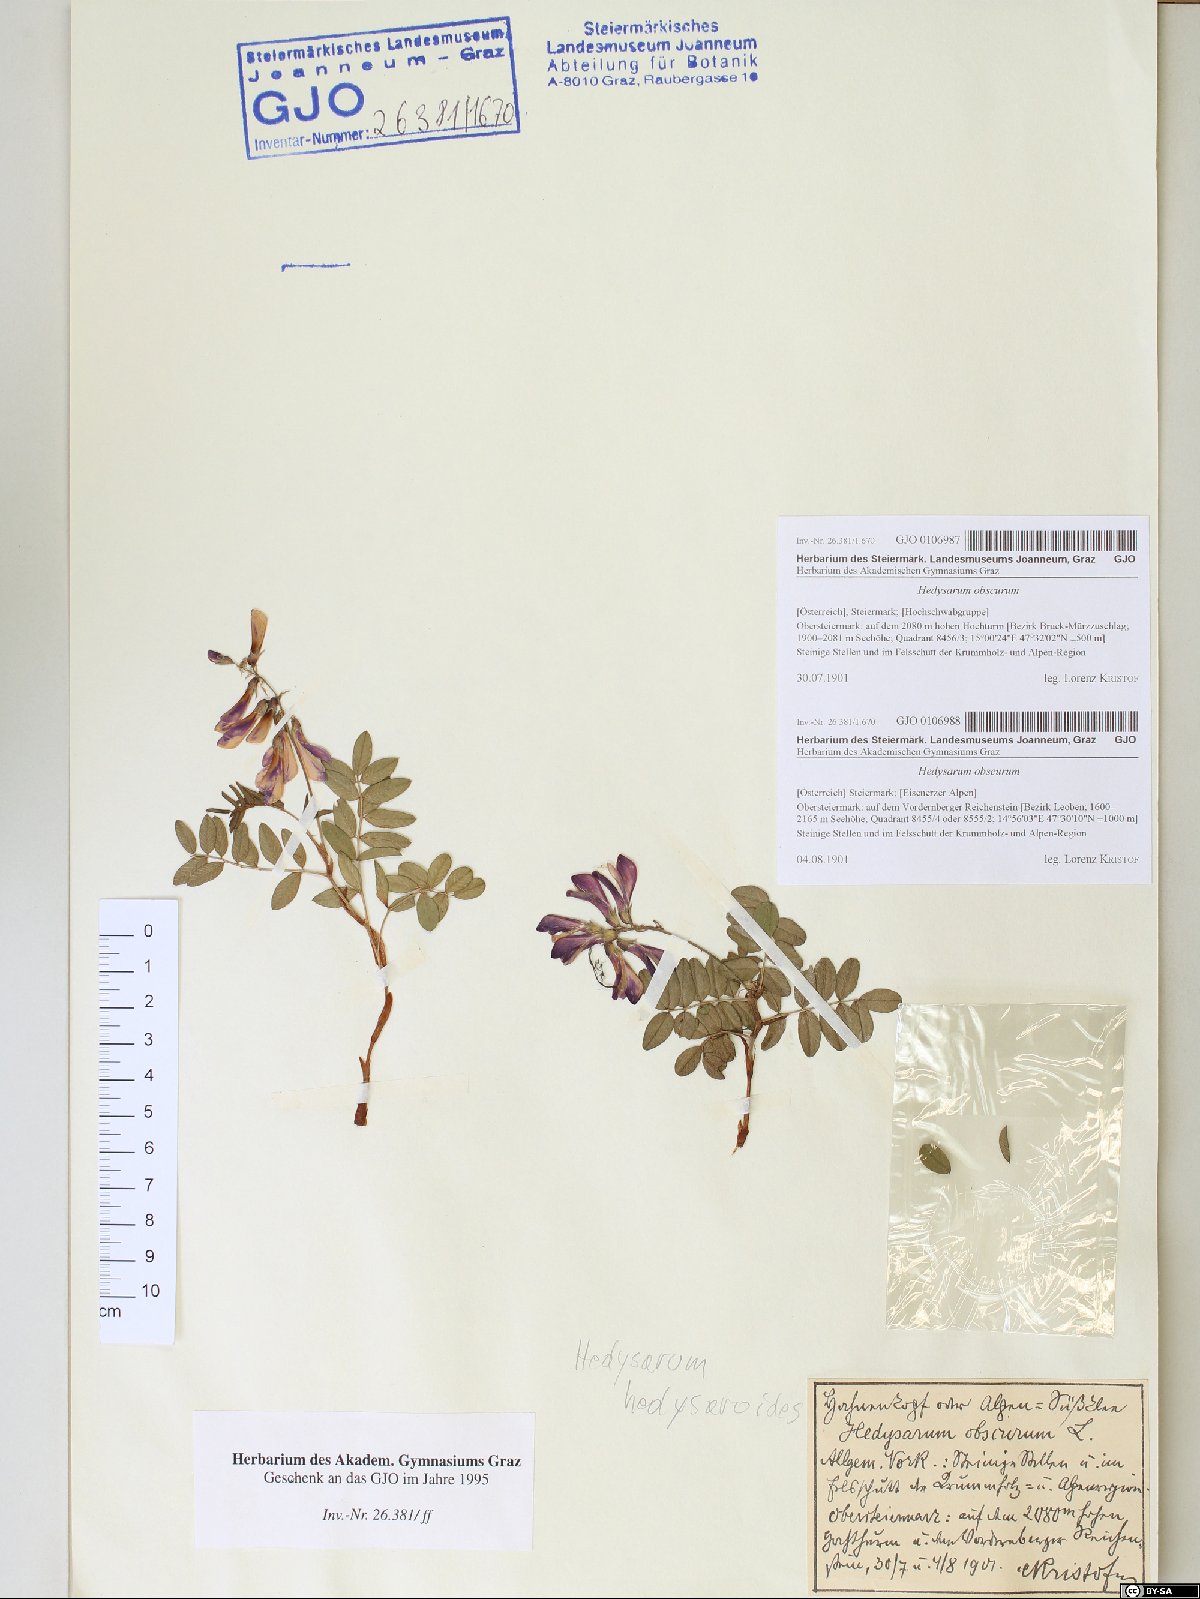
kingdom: Plantae
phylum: Tracheophyta
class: Magnoliopsida
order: Fabales
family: Fabaceae
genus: Hedysarum
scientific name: Hedysarum hedysaroides
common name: Alpine french-honeysuckle
